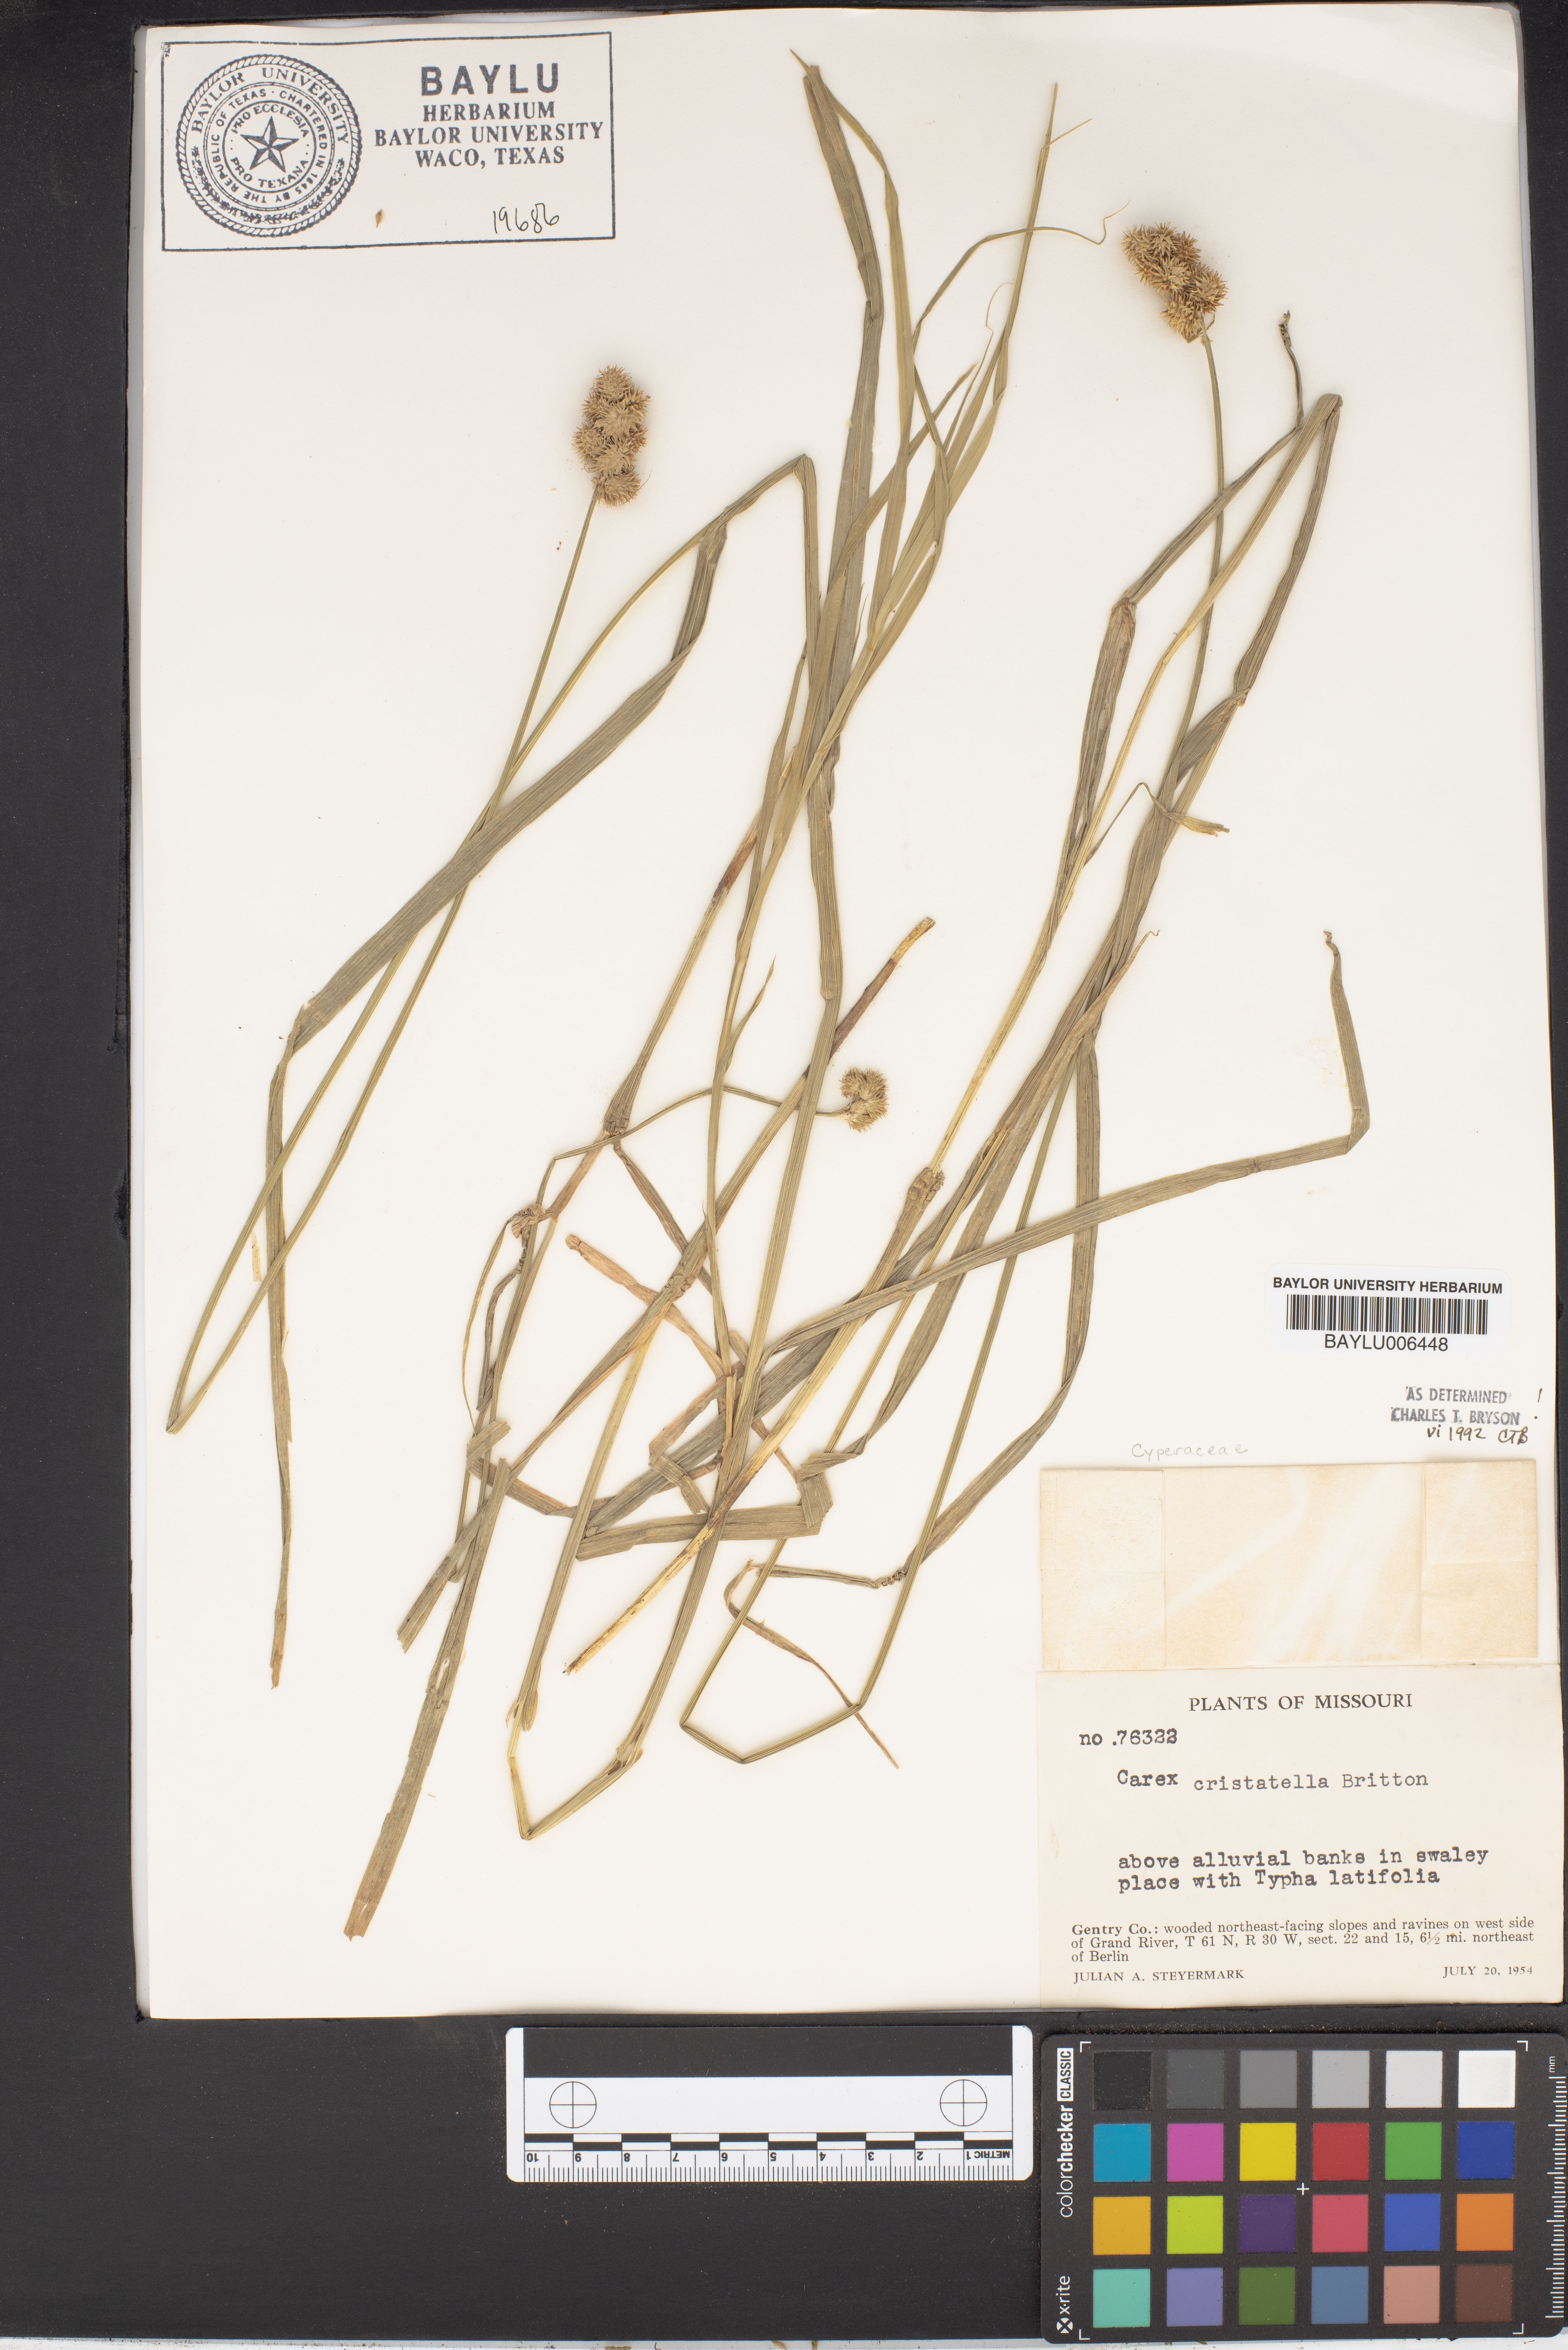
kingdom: Plantae
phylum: Tracheophyta
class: Liliopsida
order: Poales
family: Cyperaceae
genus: Carex
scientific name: Carex cristatella
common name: Crested oval sedge
